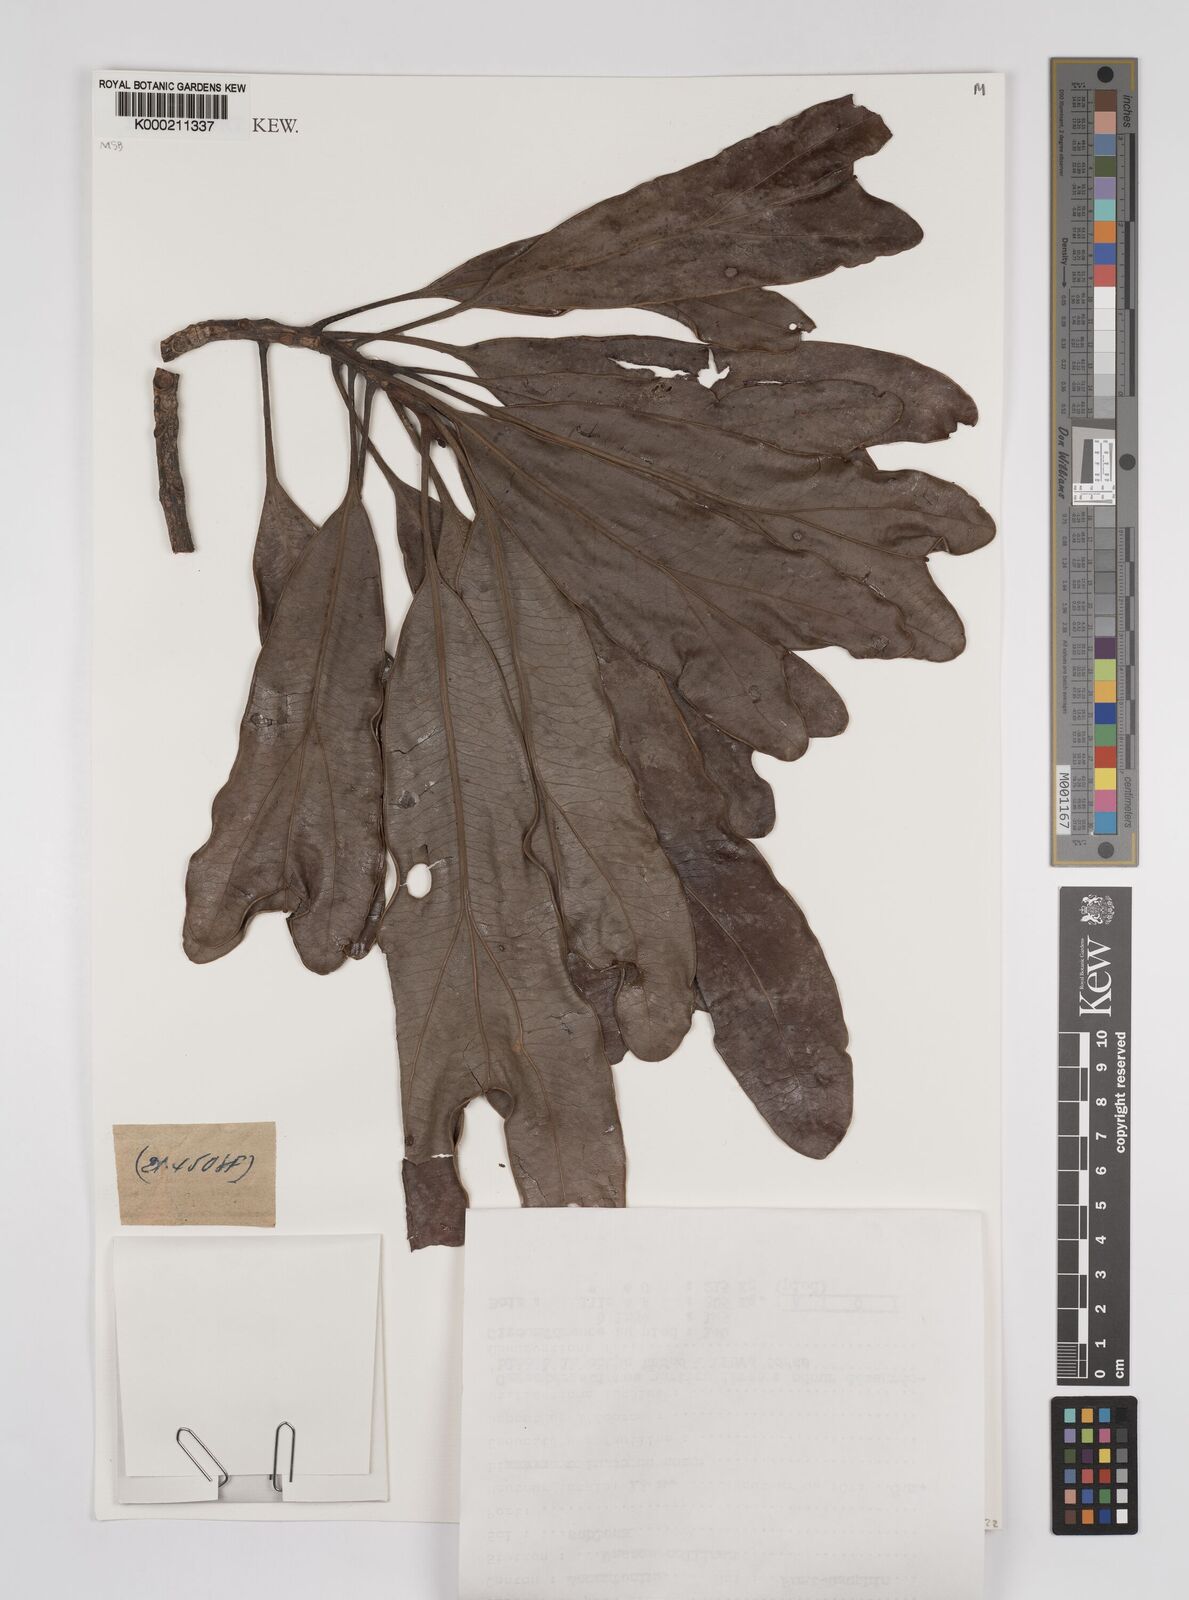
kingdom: Plantae
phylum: Tracheophyta
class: Magnoliopsida
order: Proteales
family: Proteaceae
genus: Dilobeia
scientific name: Dilobeia thouarsii
